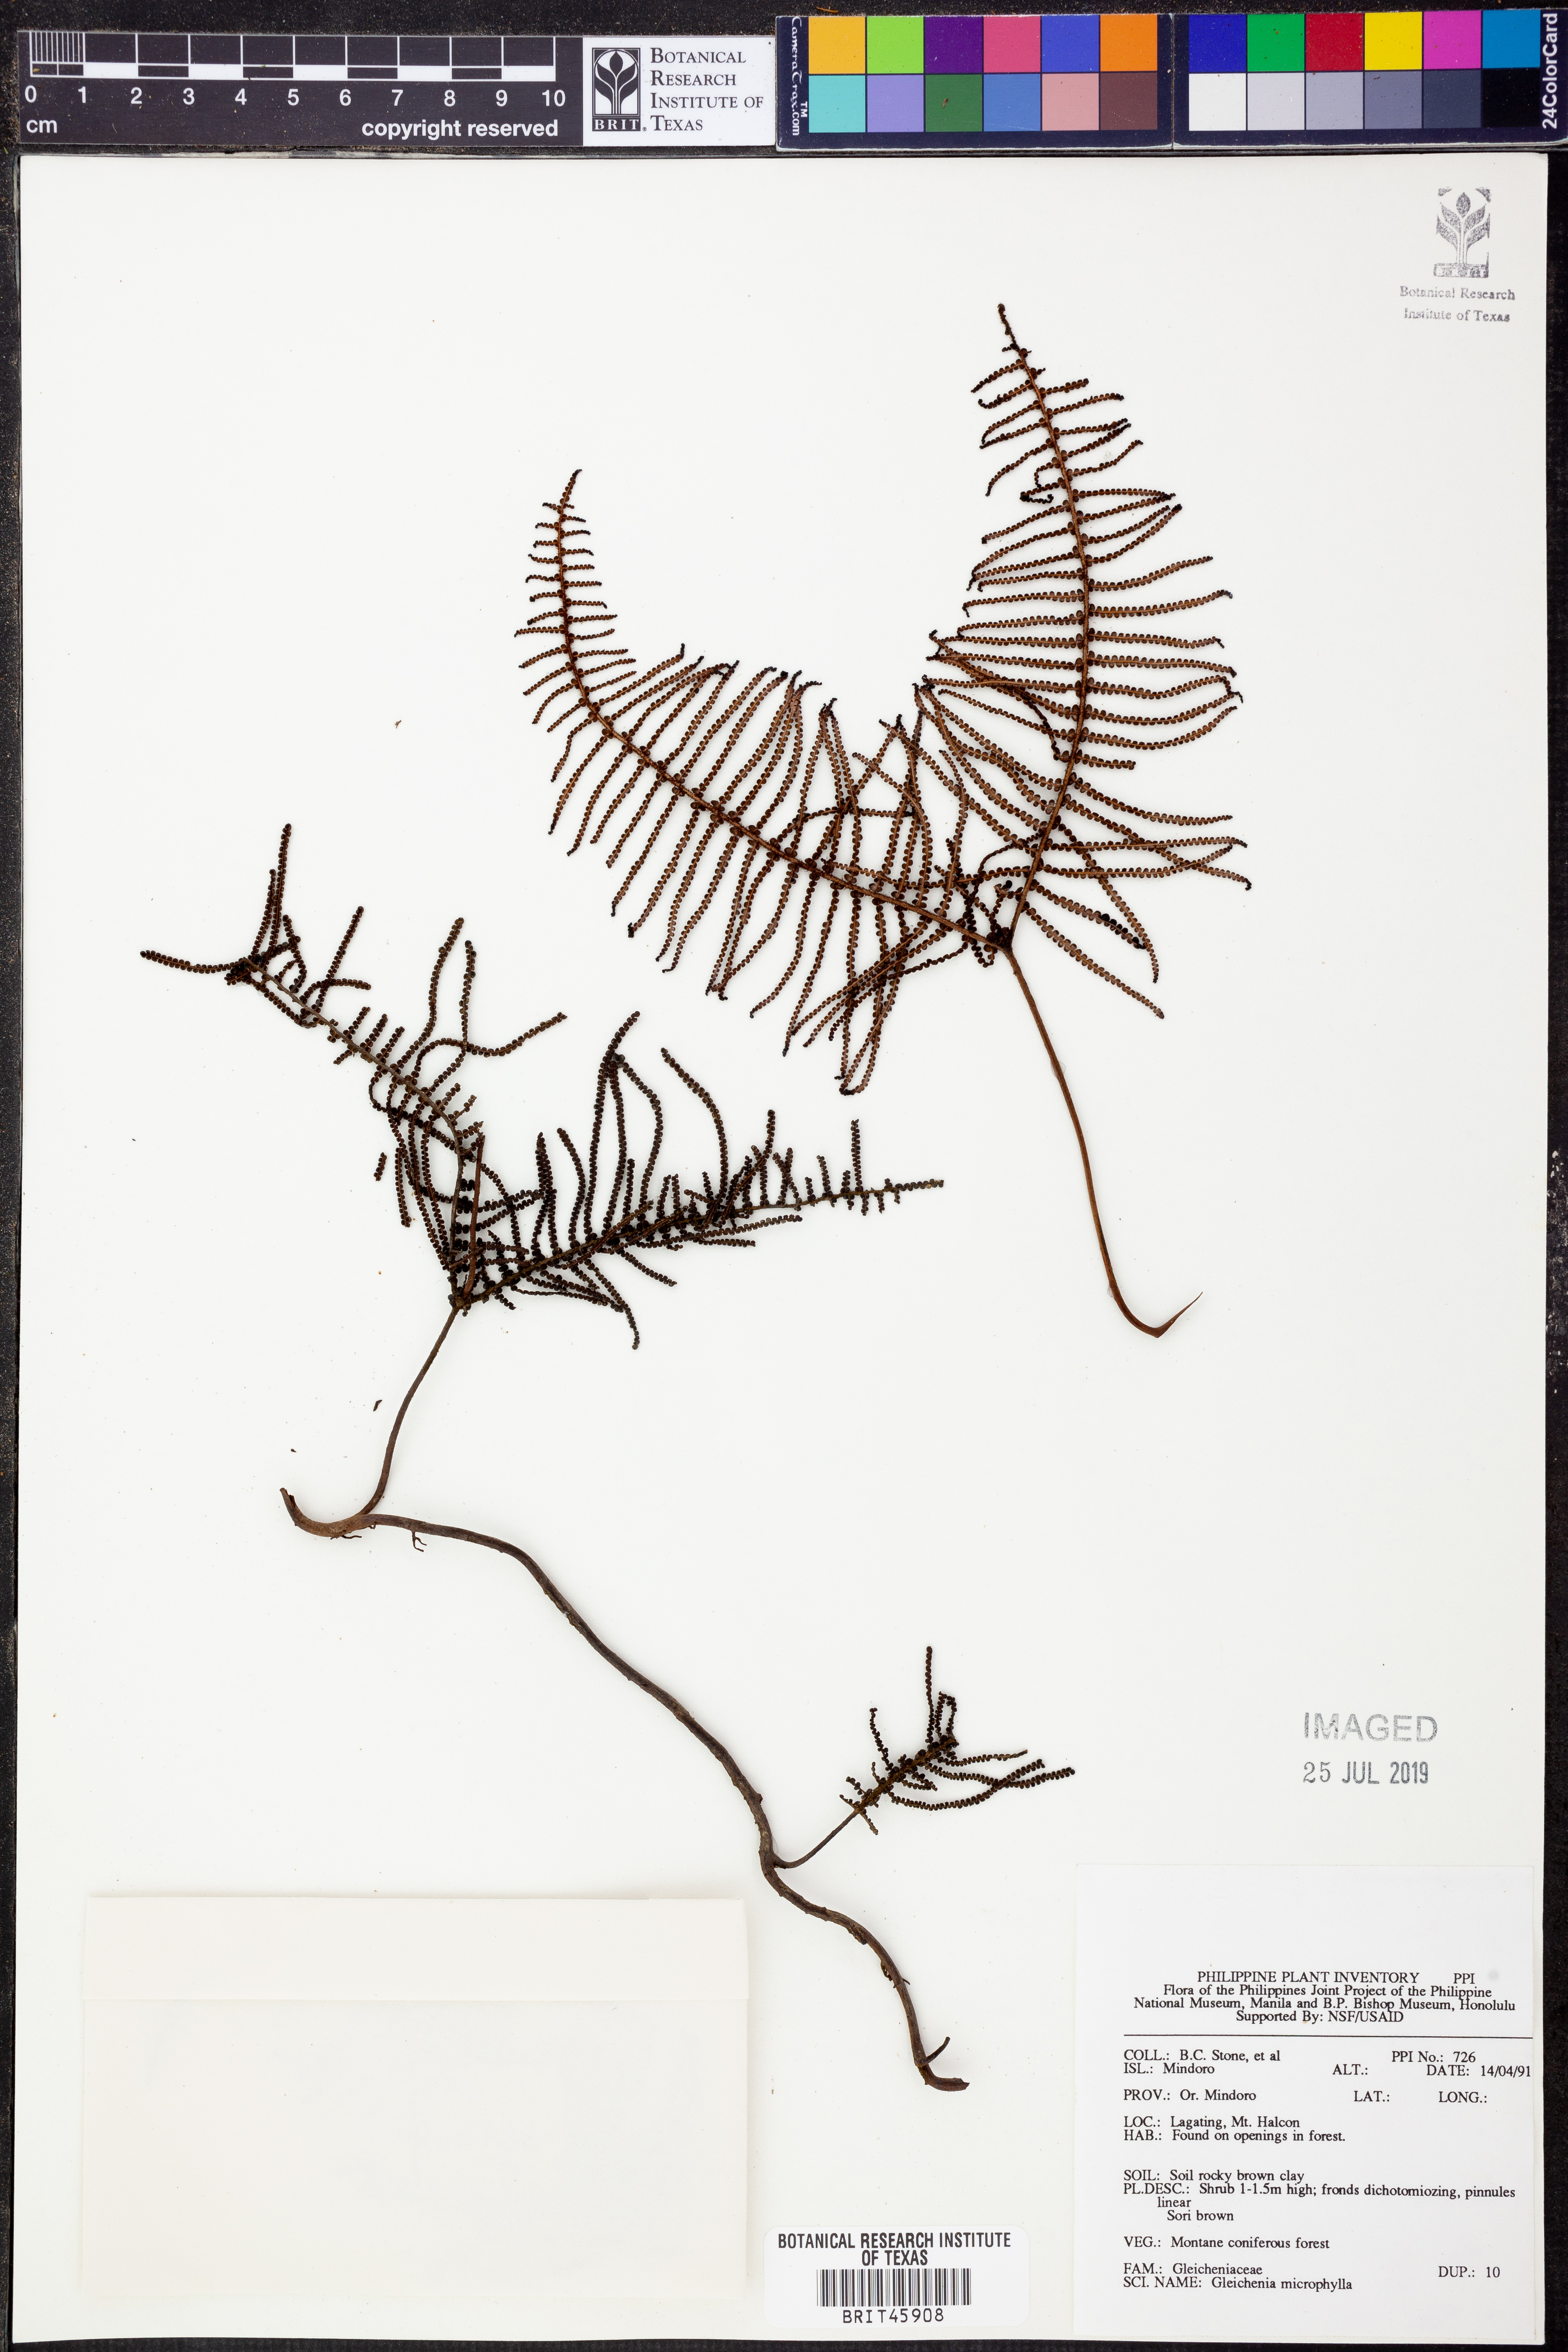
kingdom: Plantae
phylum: Tracheophyta
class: Polypodiopsida
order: Gleicheniales
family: Gleicheniaceae
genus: Gleichenia
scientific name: Gleichenia microphylla
